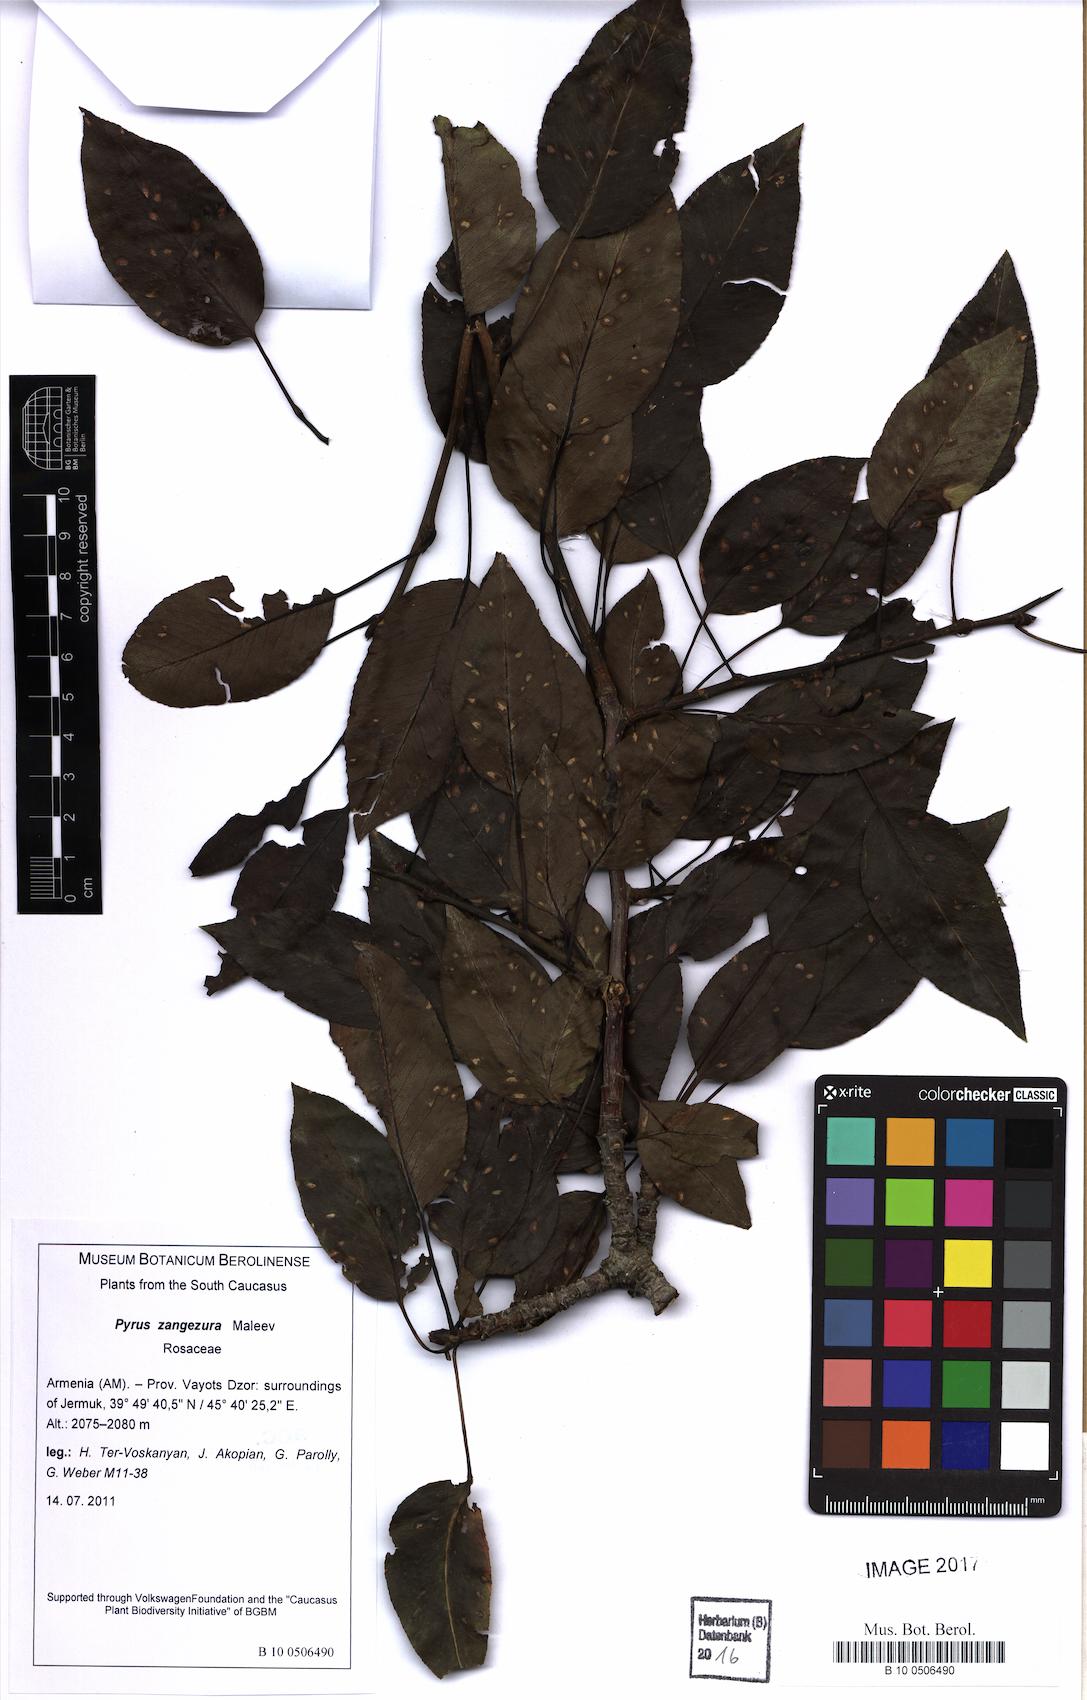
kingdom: Plantae
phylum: Tracheophyta
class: Magnoliopsida
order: Rosales
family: Rosaceae
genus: Pyrus
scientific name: Pyrus zangezura
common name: Zangezurian pear
